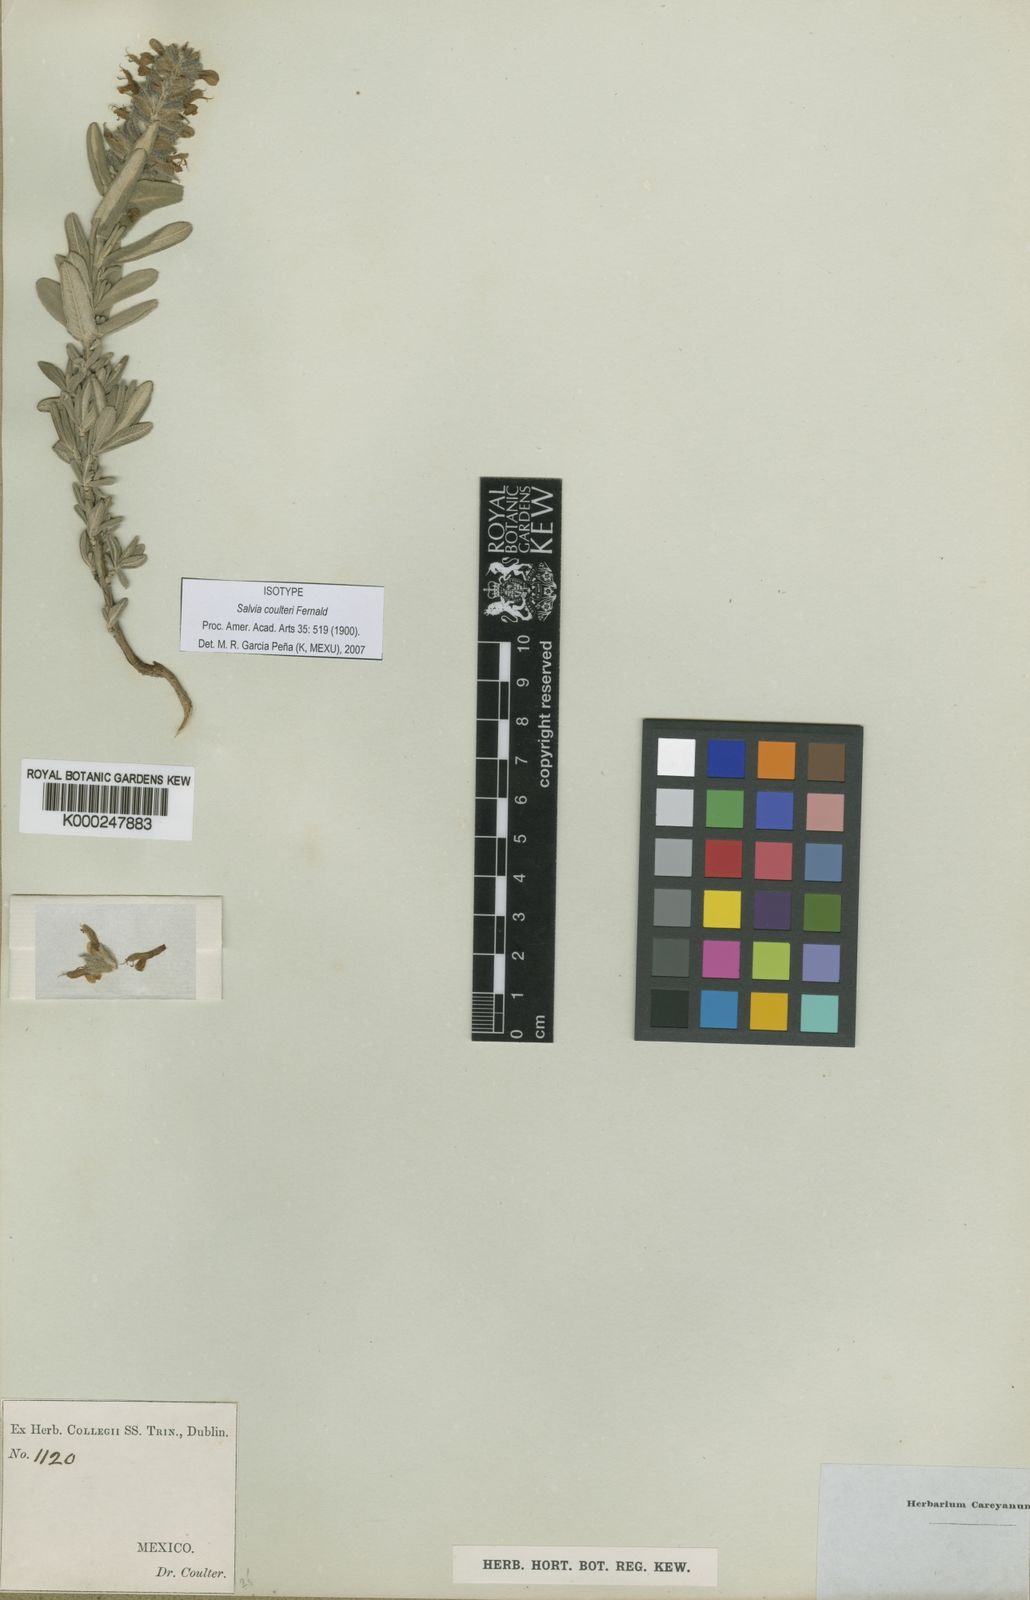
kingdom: Plantae
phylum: Tracheophyta
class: Magnoliopsida
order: Lamiales
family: Lamiaceae
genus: Salvia
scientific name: Salvia coulteri
